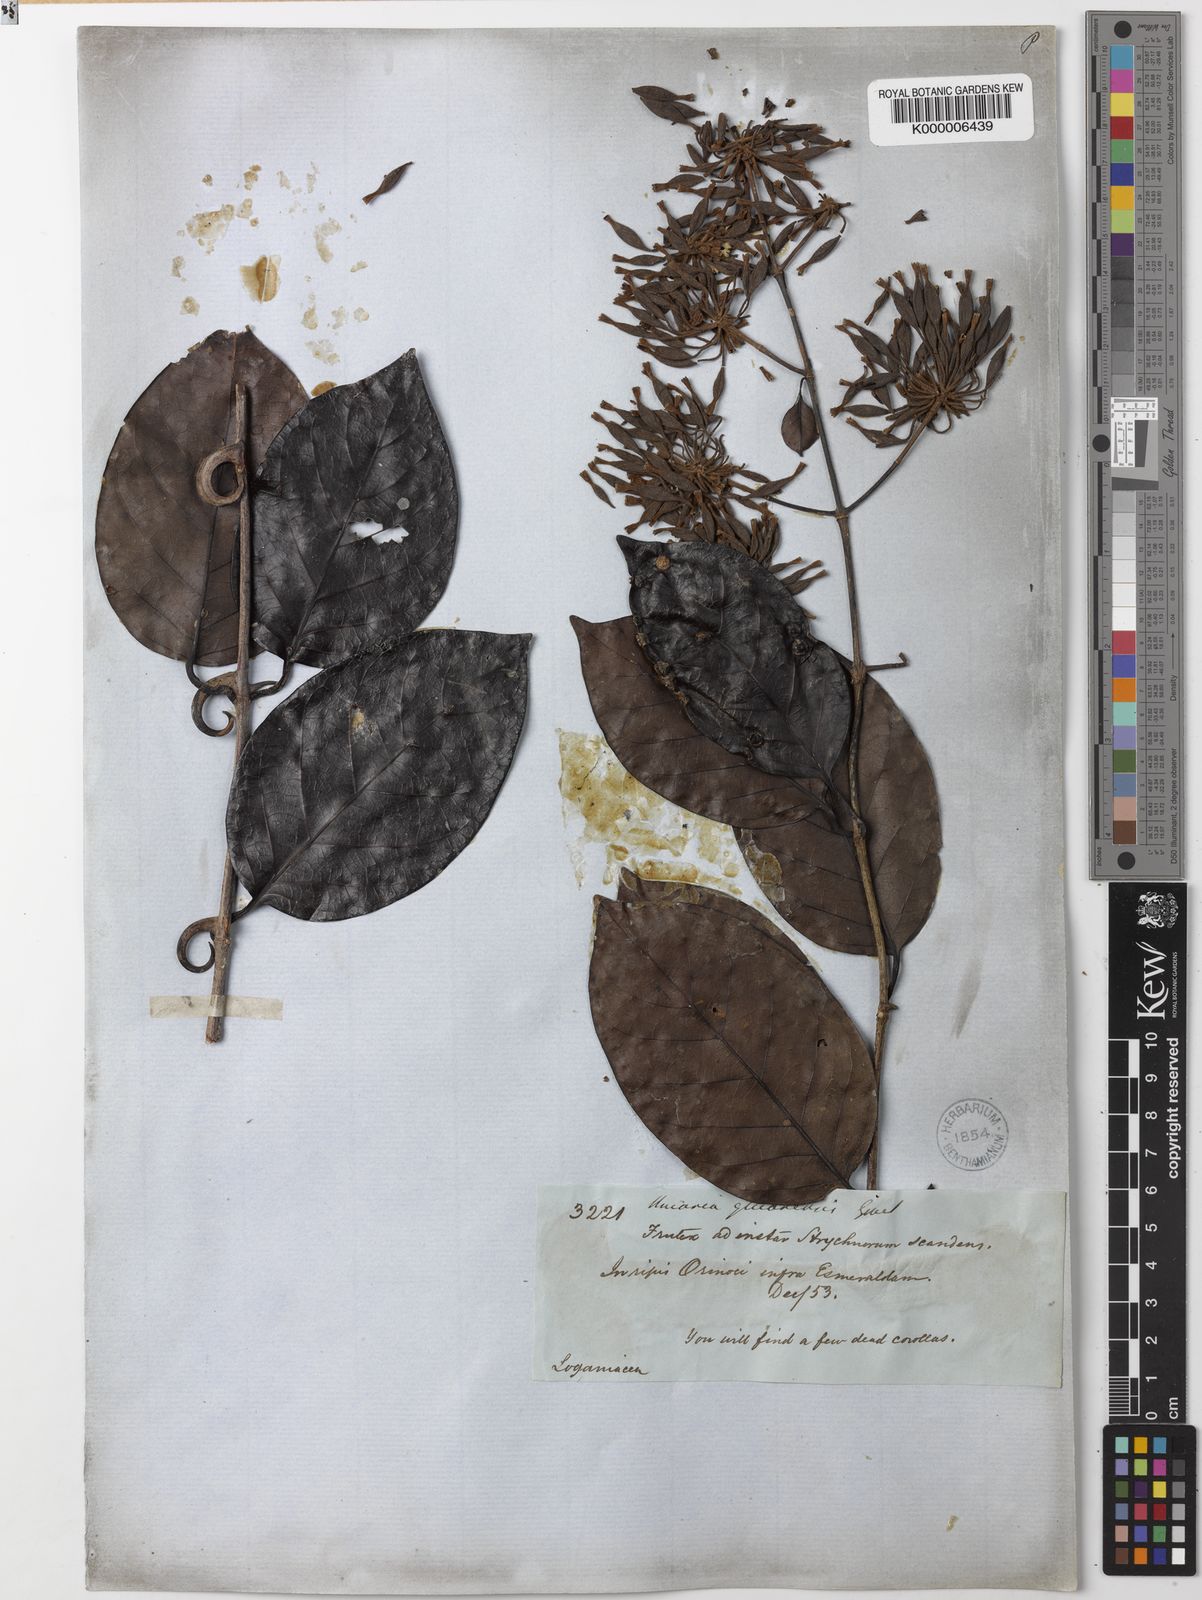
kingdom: Plantae
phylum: Tracheophyta
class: Magnoliopsida
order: Gentianales
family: Rubiaceae
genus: Uncaria
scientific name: Uncaria
